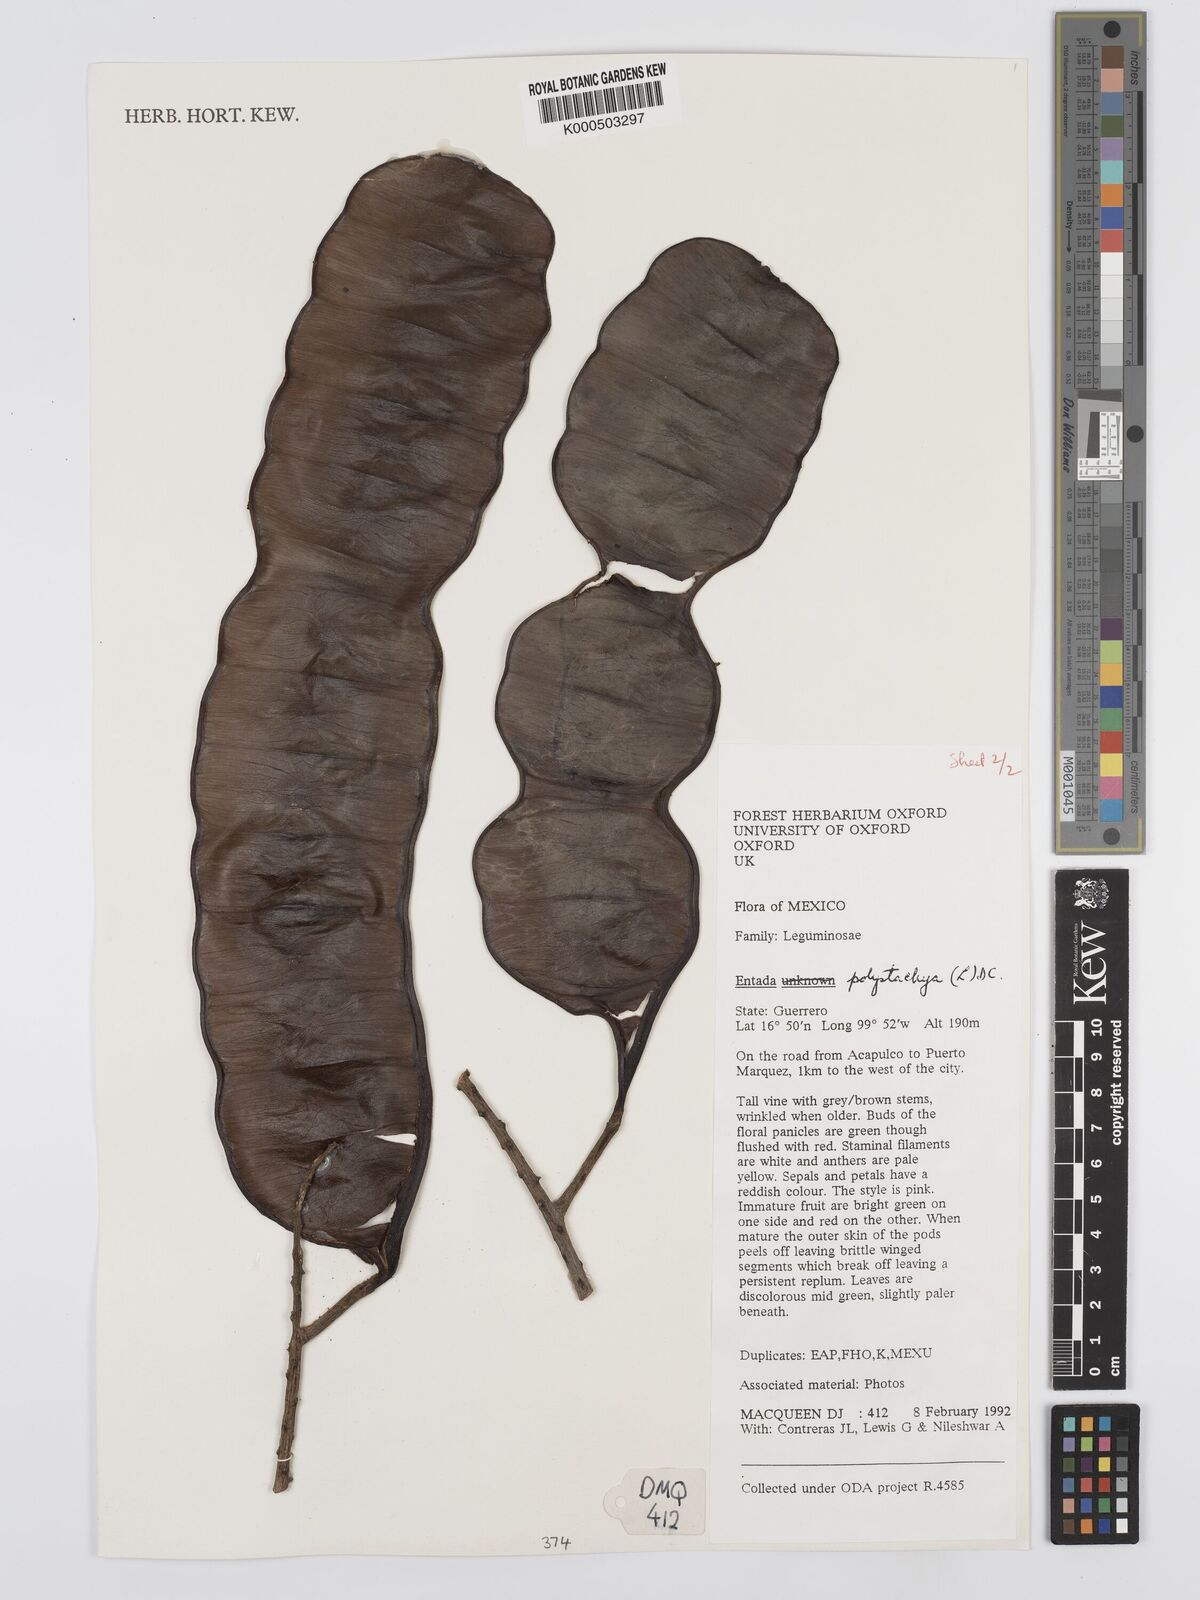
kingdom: Plantae
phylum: Tracheophyta
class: Magnoliopsida
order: Fabales
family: Fabaceae
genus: Entada
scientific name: Entada polystachya
